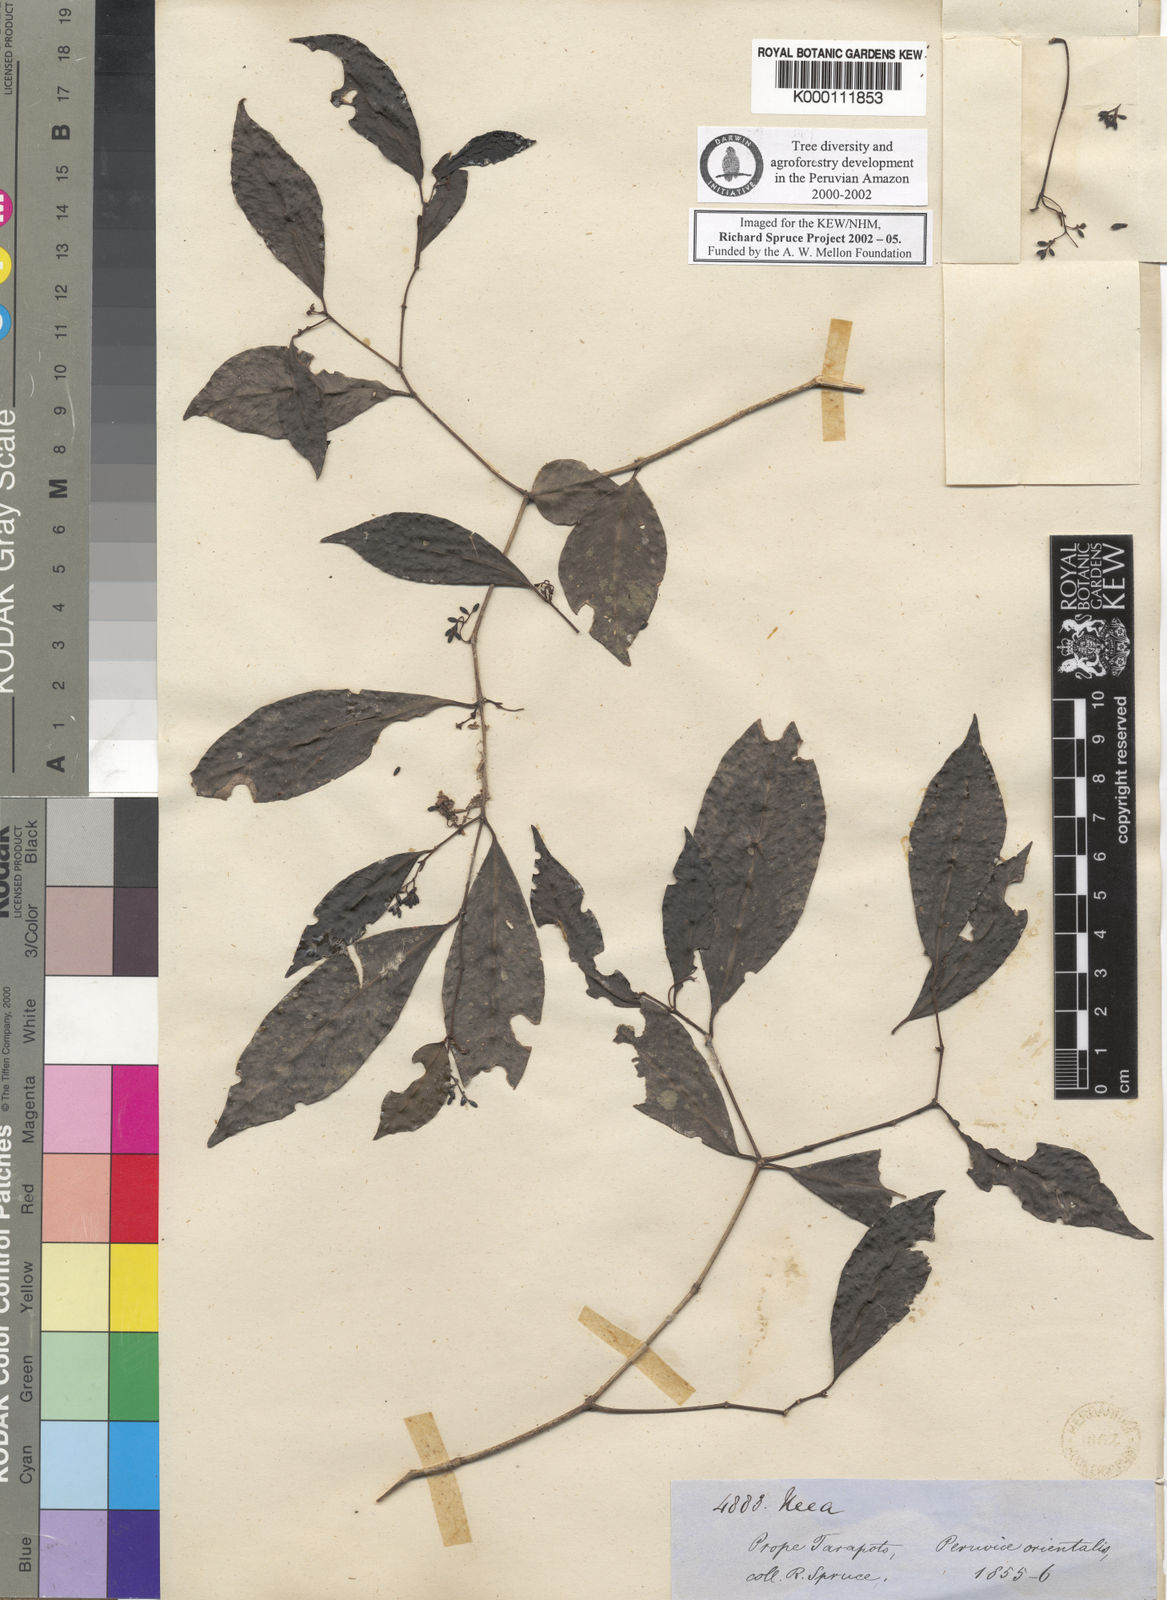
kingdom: Plantae
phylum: Tracheophyta
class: Magnoliopsida
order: Caryophyllales
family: Nyctaginaceae
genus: Neea
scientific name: Neea
